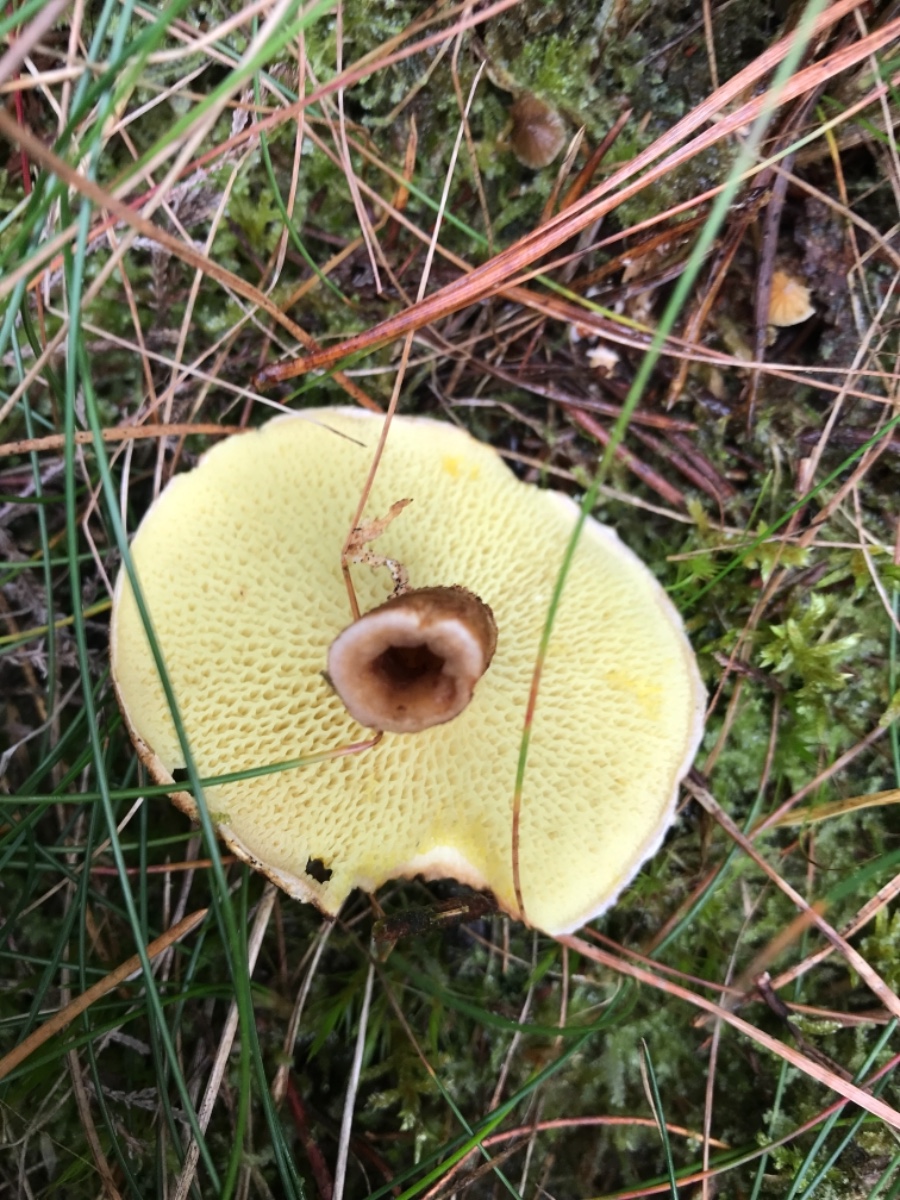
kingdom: Fungi
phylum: Basidiomycota
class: Agaricomycetes
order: Boletales
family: Suillaceae
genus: Suillus
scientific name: Suillus cavipes
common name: hulstokket slimrørhat
